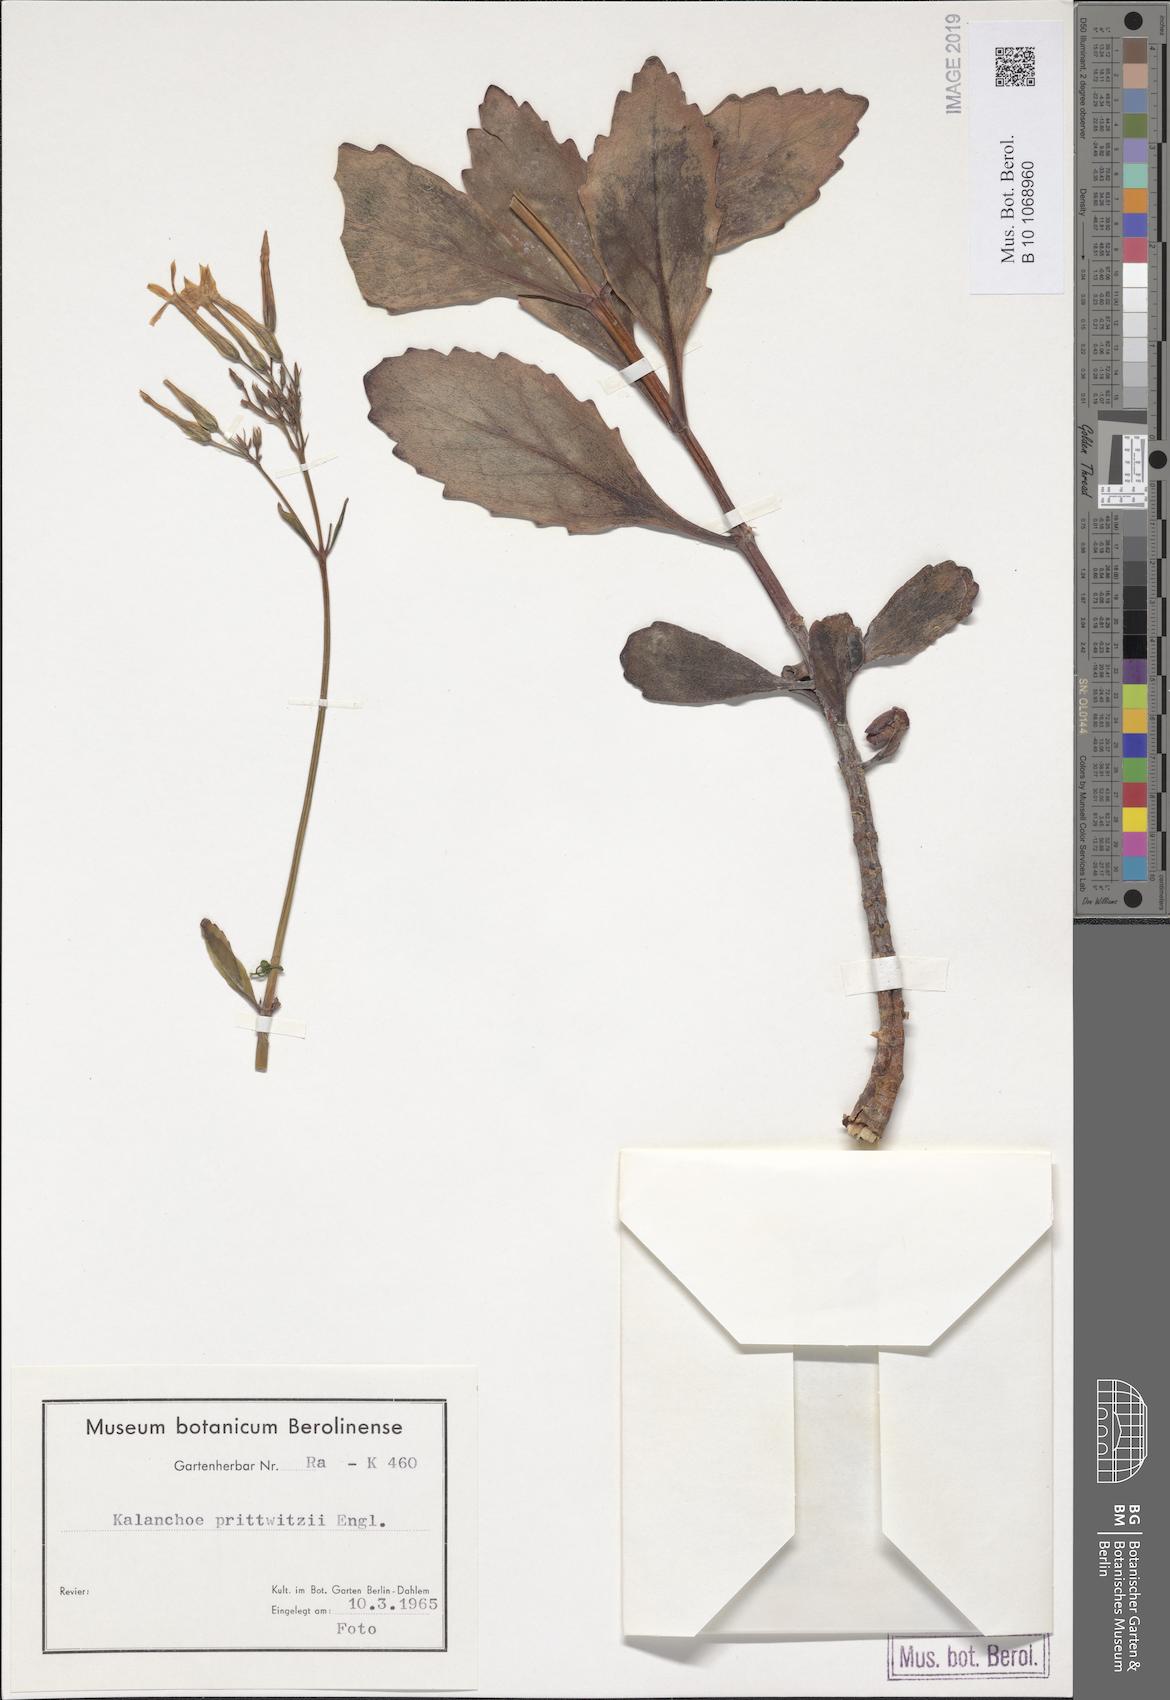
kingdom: Plantae
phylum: Tracheophyta
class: Magnoliopsida
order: Saxifragales
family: Crassulaceae
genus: Kalanchoe
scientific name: Kalanchoe prittwitzii
